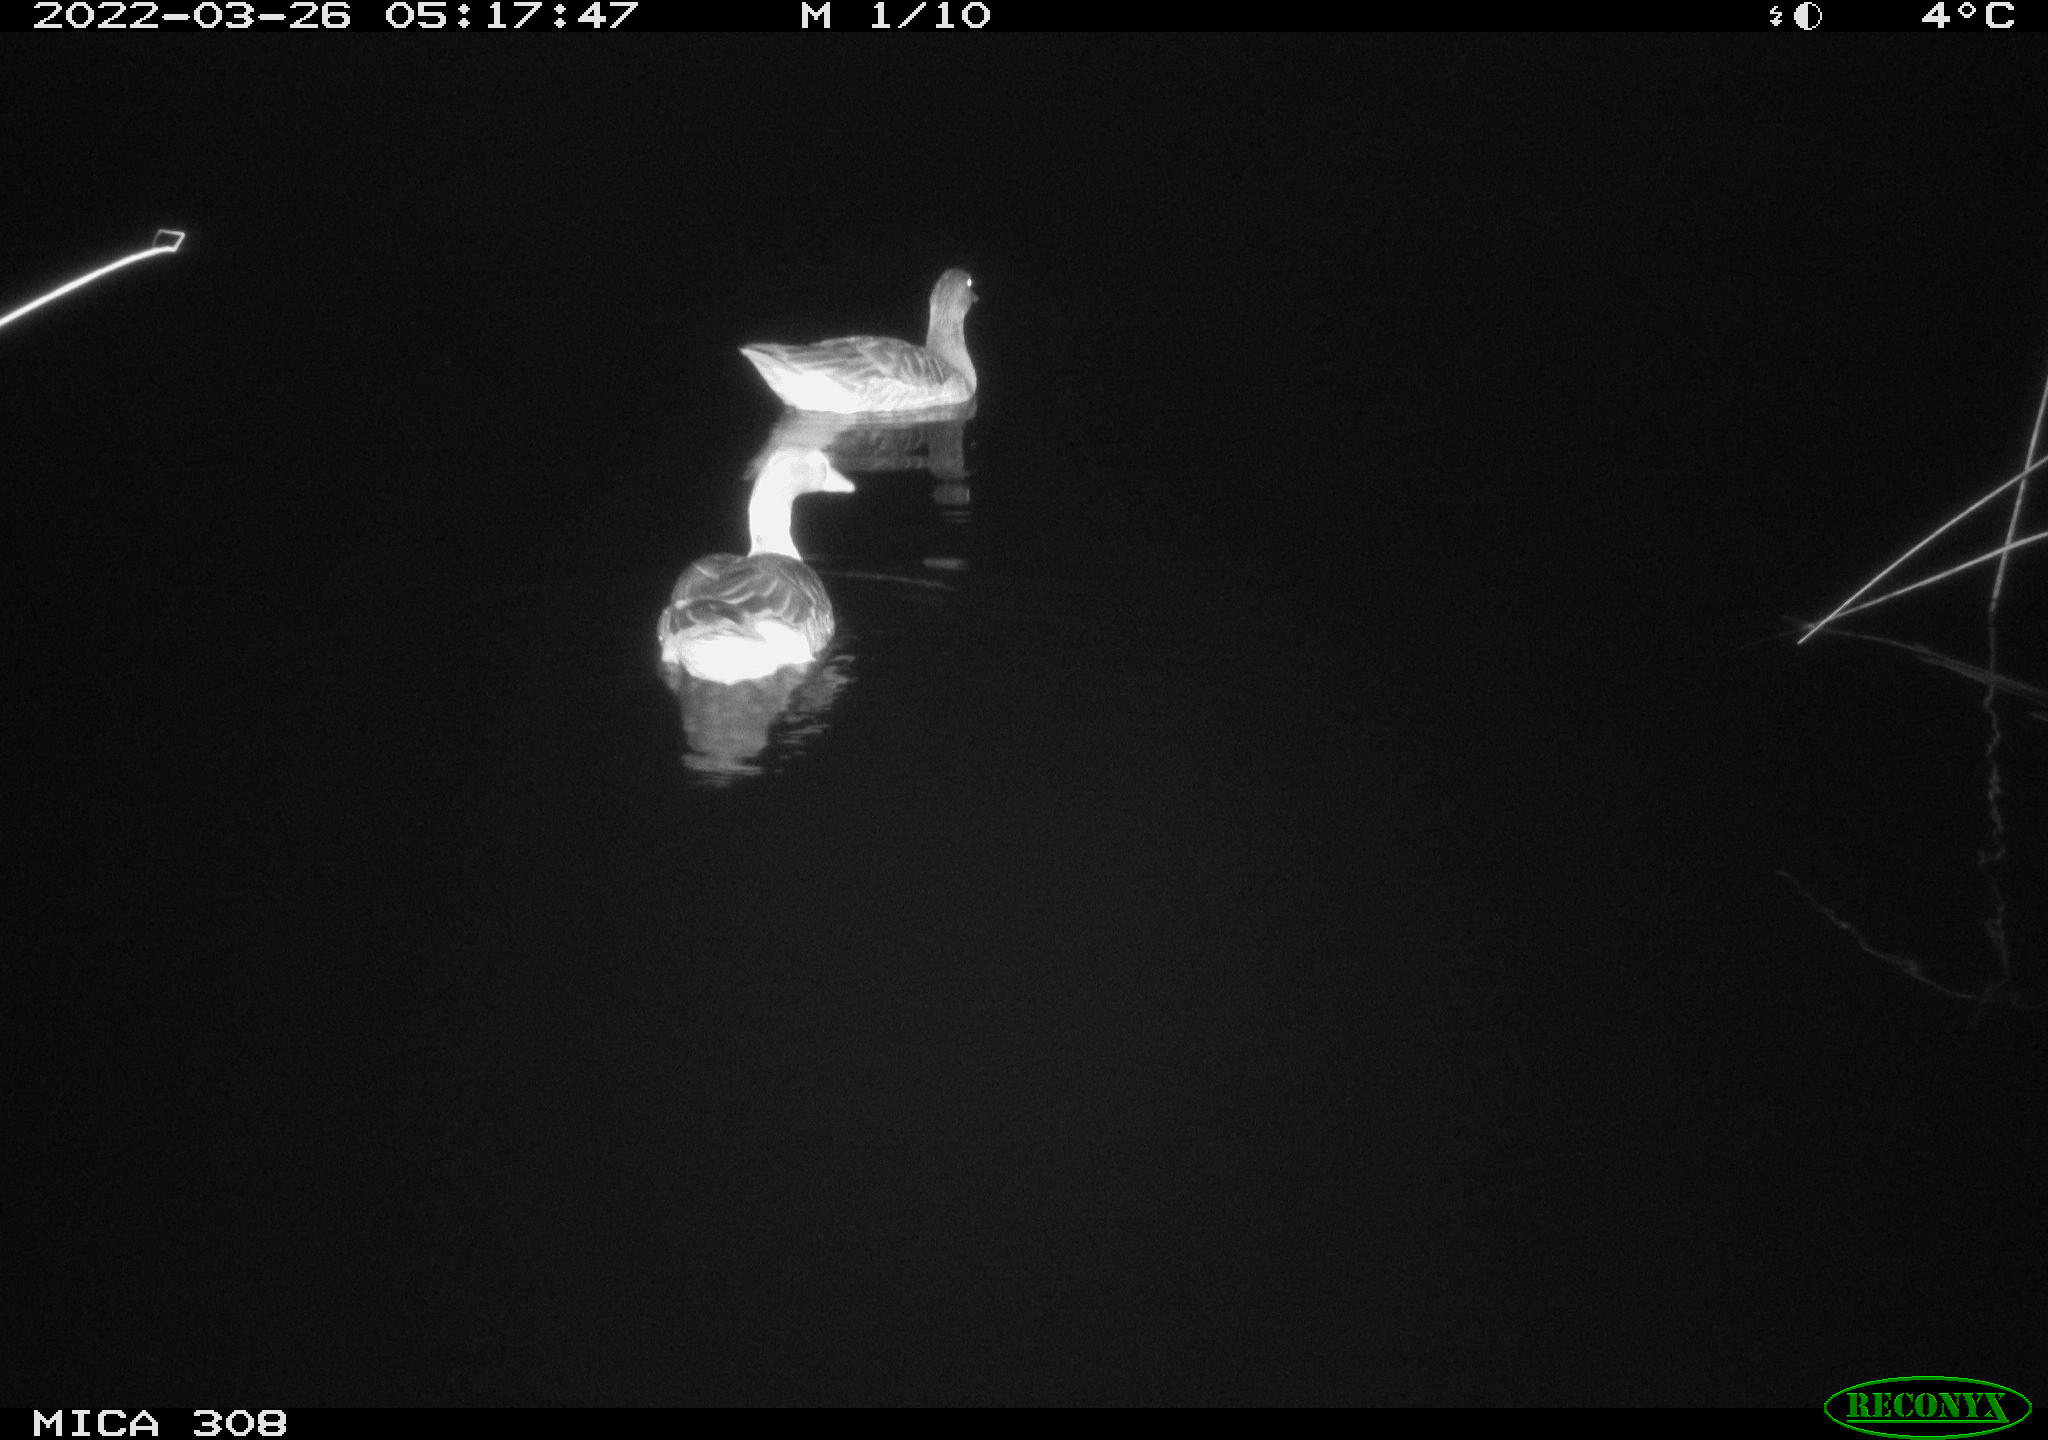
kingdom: Animalia
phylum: Chordata
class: Aves
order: Anseriformes
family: Anatidae
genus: Anas
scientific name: Anas platyrhynchos
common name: Mallard
